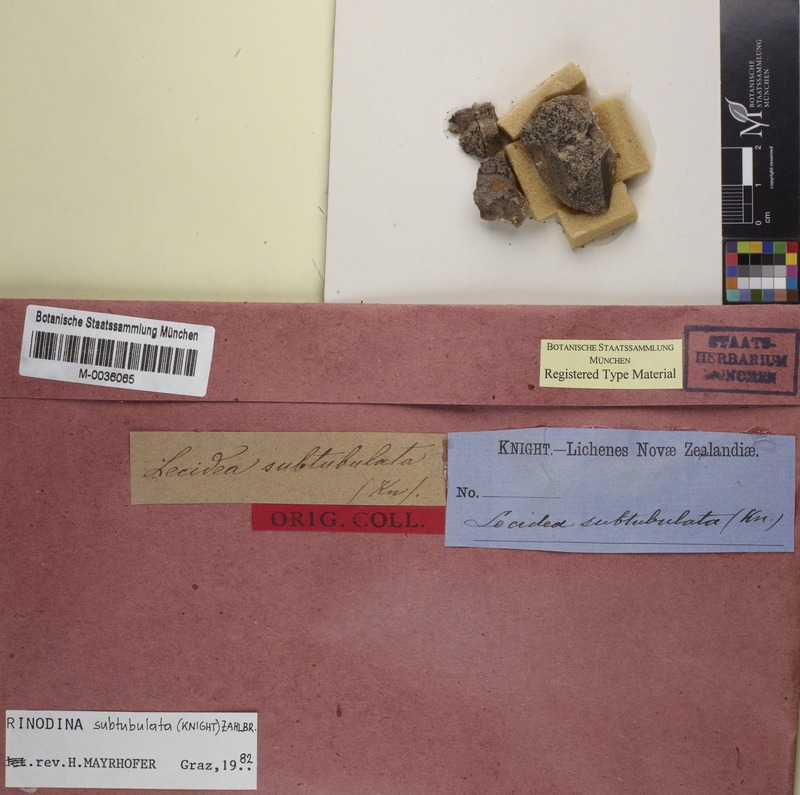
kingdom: Fungi
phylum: Ascomycota
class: Lecanoromycetes
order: Caliciales
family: Physciaceae
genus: Rinodina
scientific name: Rinodina
